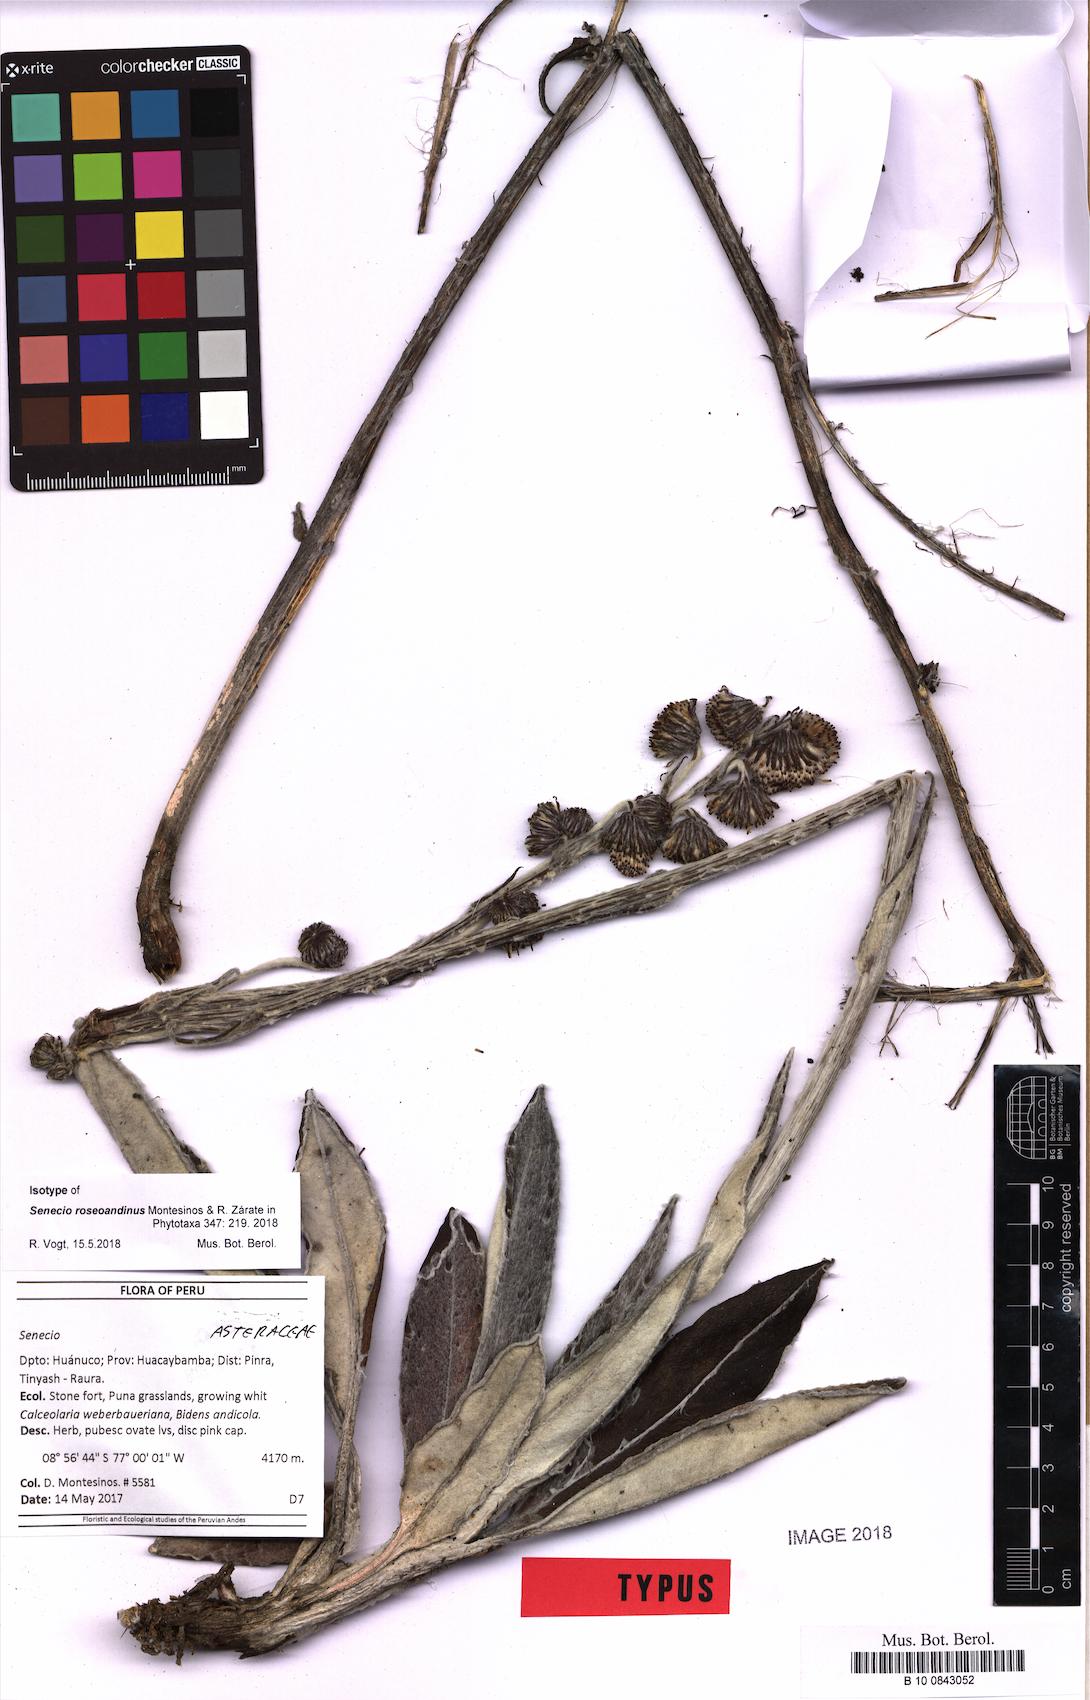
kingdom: Plantae
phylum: Tracheophyta
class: Magnoliopsida
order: Asterales
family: Asteraceae
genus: Senecio
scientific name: Senecio roseoandinus
